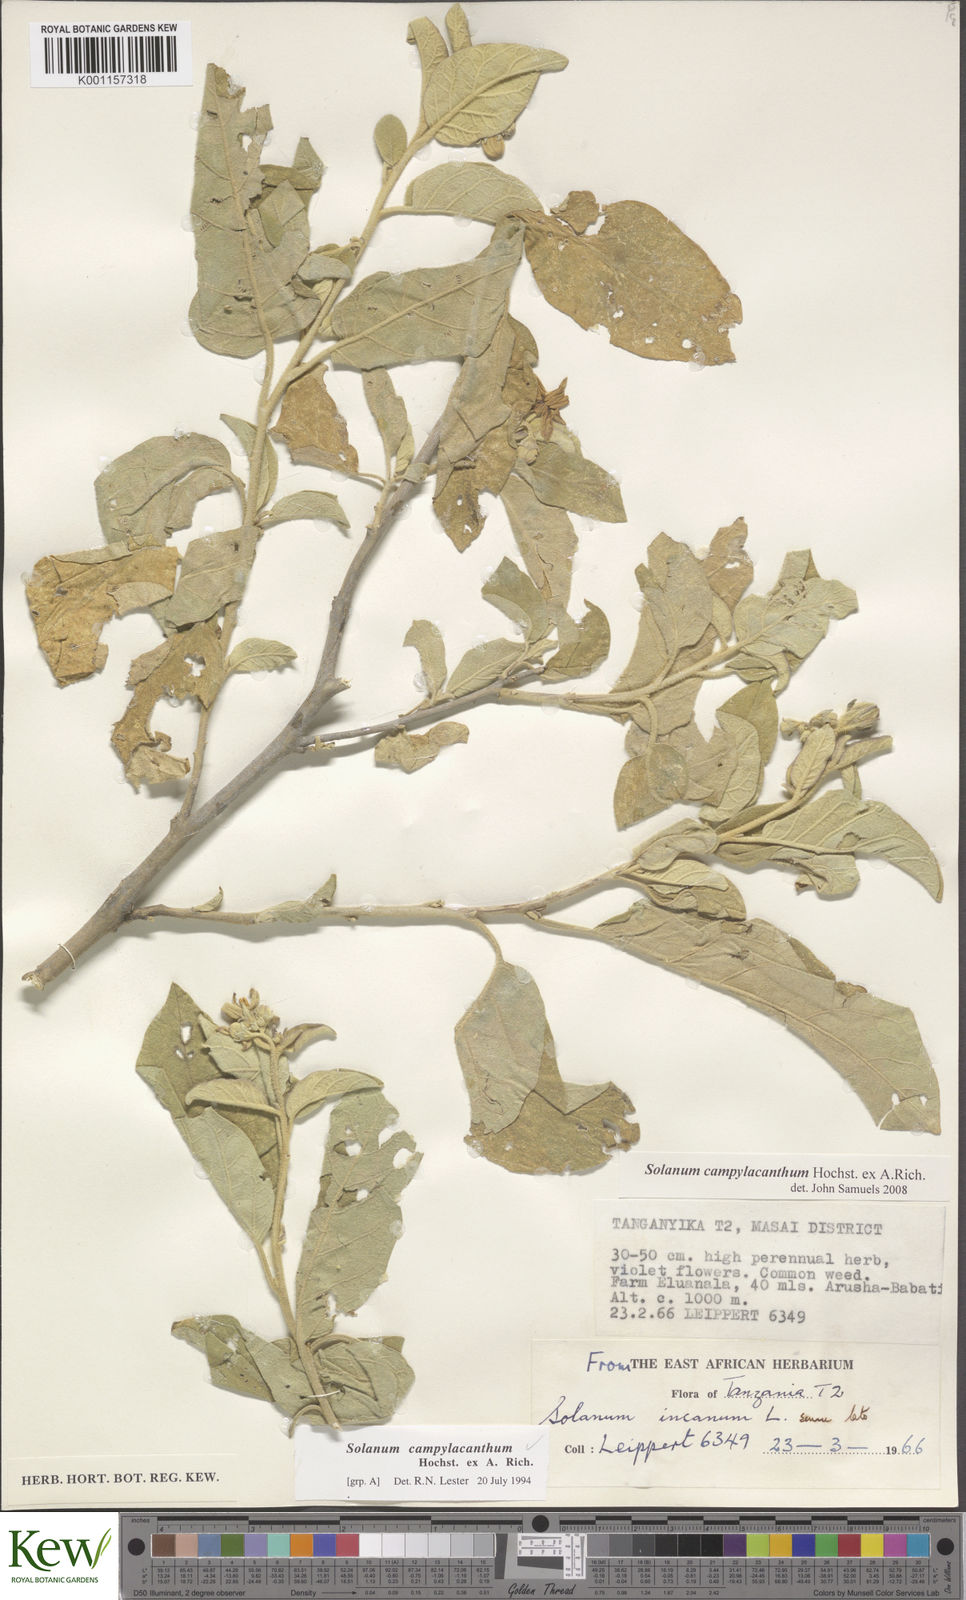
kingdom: Plantae
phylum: Tracheophyta
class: Magnoliopsida
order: Solanales
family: Solanaceae
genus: Solanum
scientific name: Solanum campylacanthum
